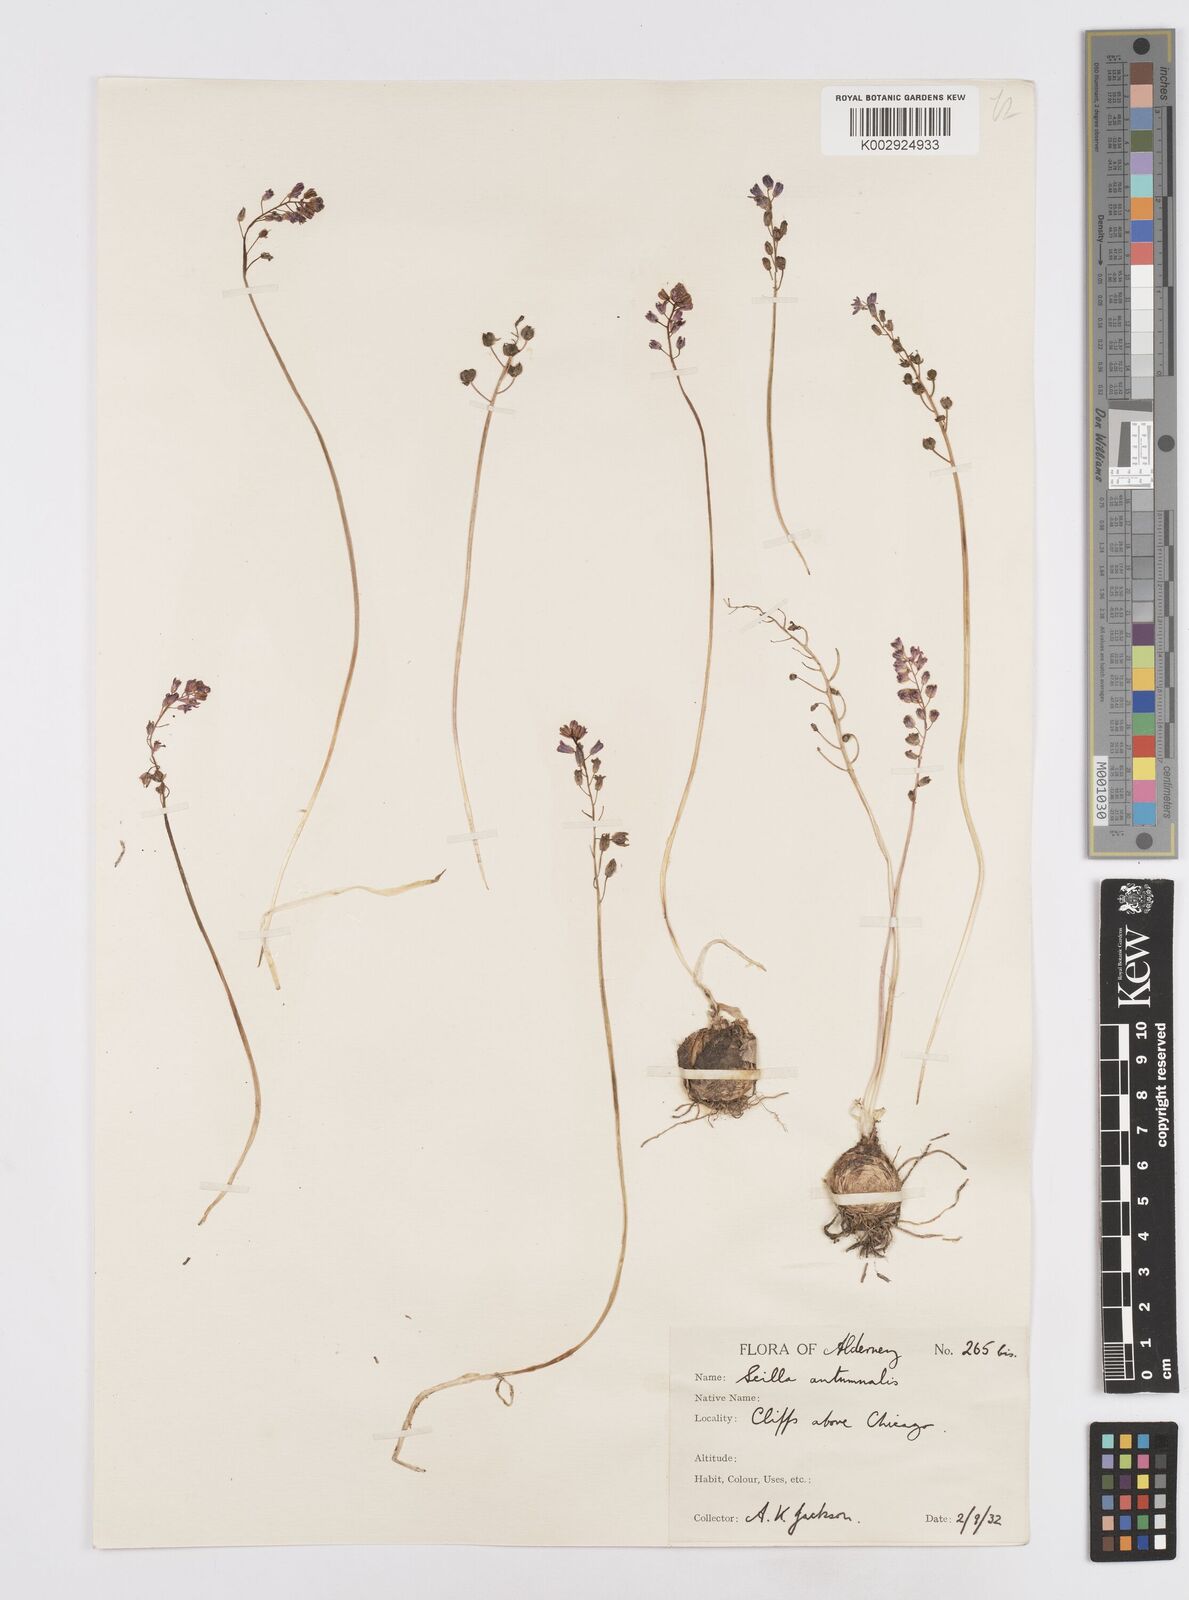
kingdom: Plantae
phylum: Tracheophyta
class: Liliopsida
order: Asparagales
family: Asparagaceae
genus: Prospero
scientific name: Prospero autumnale
